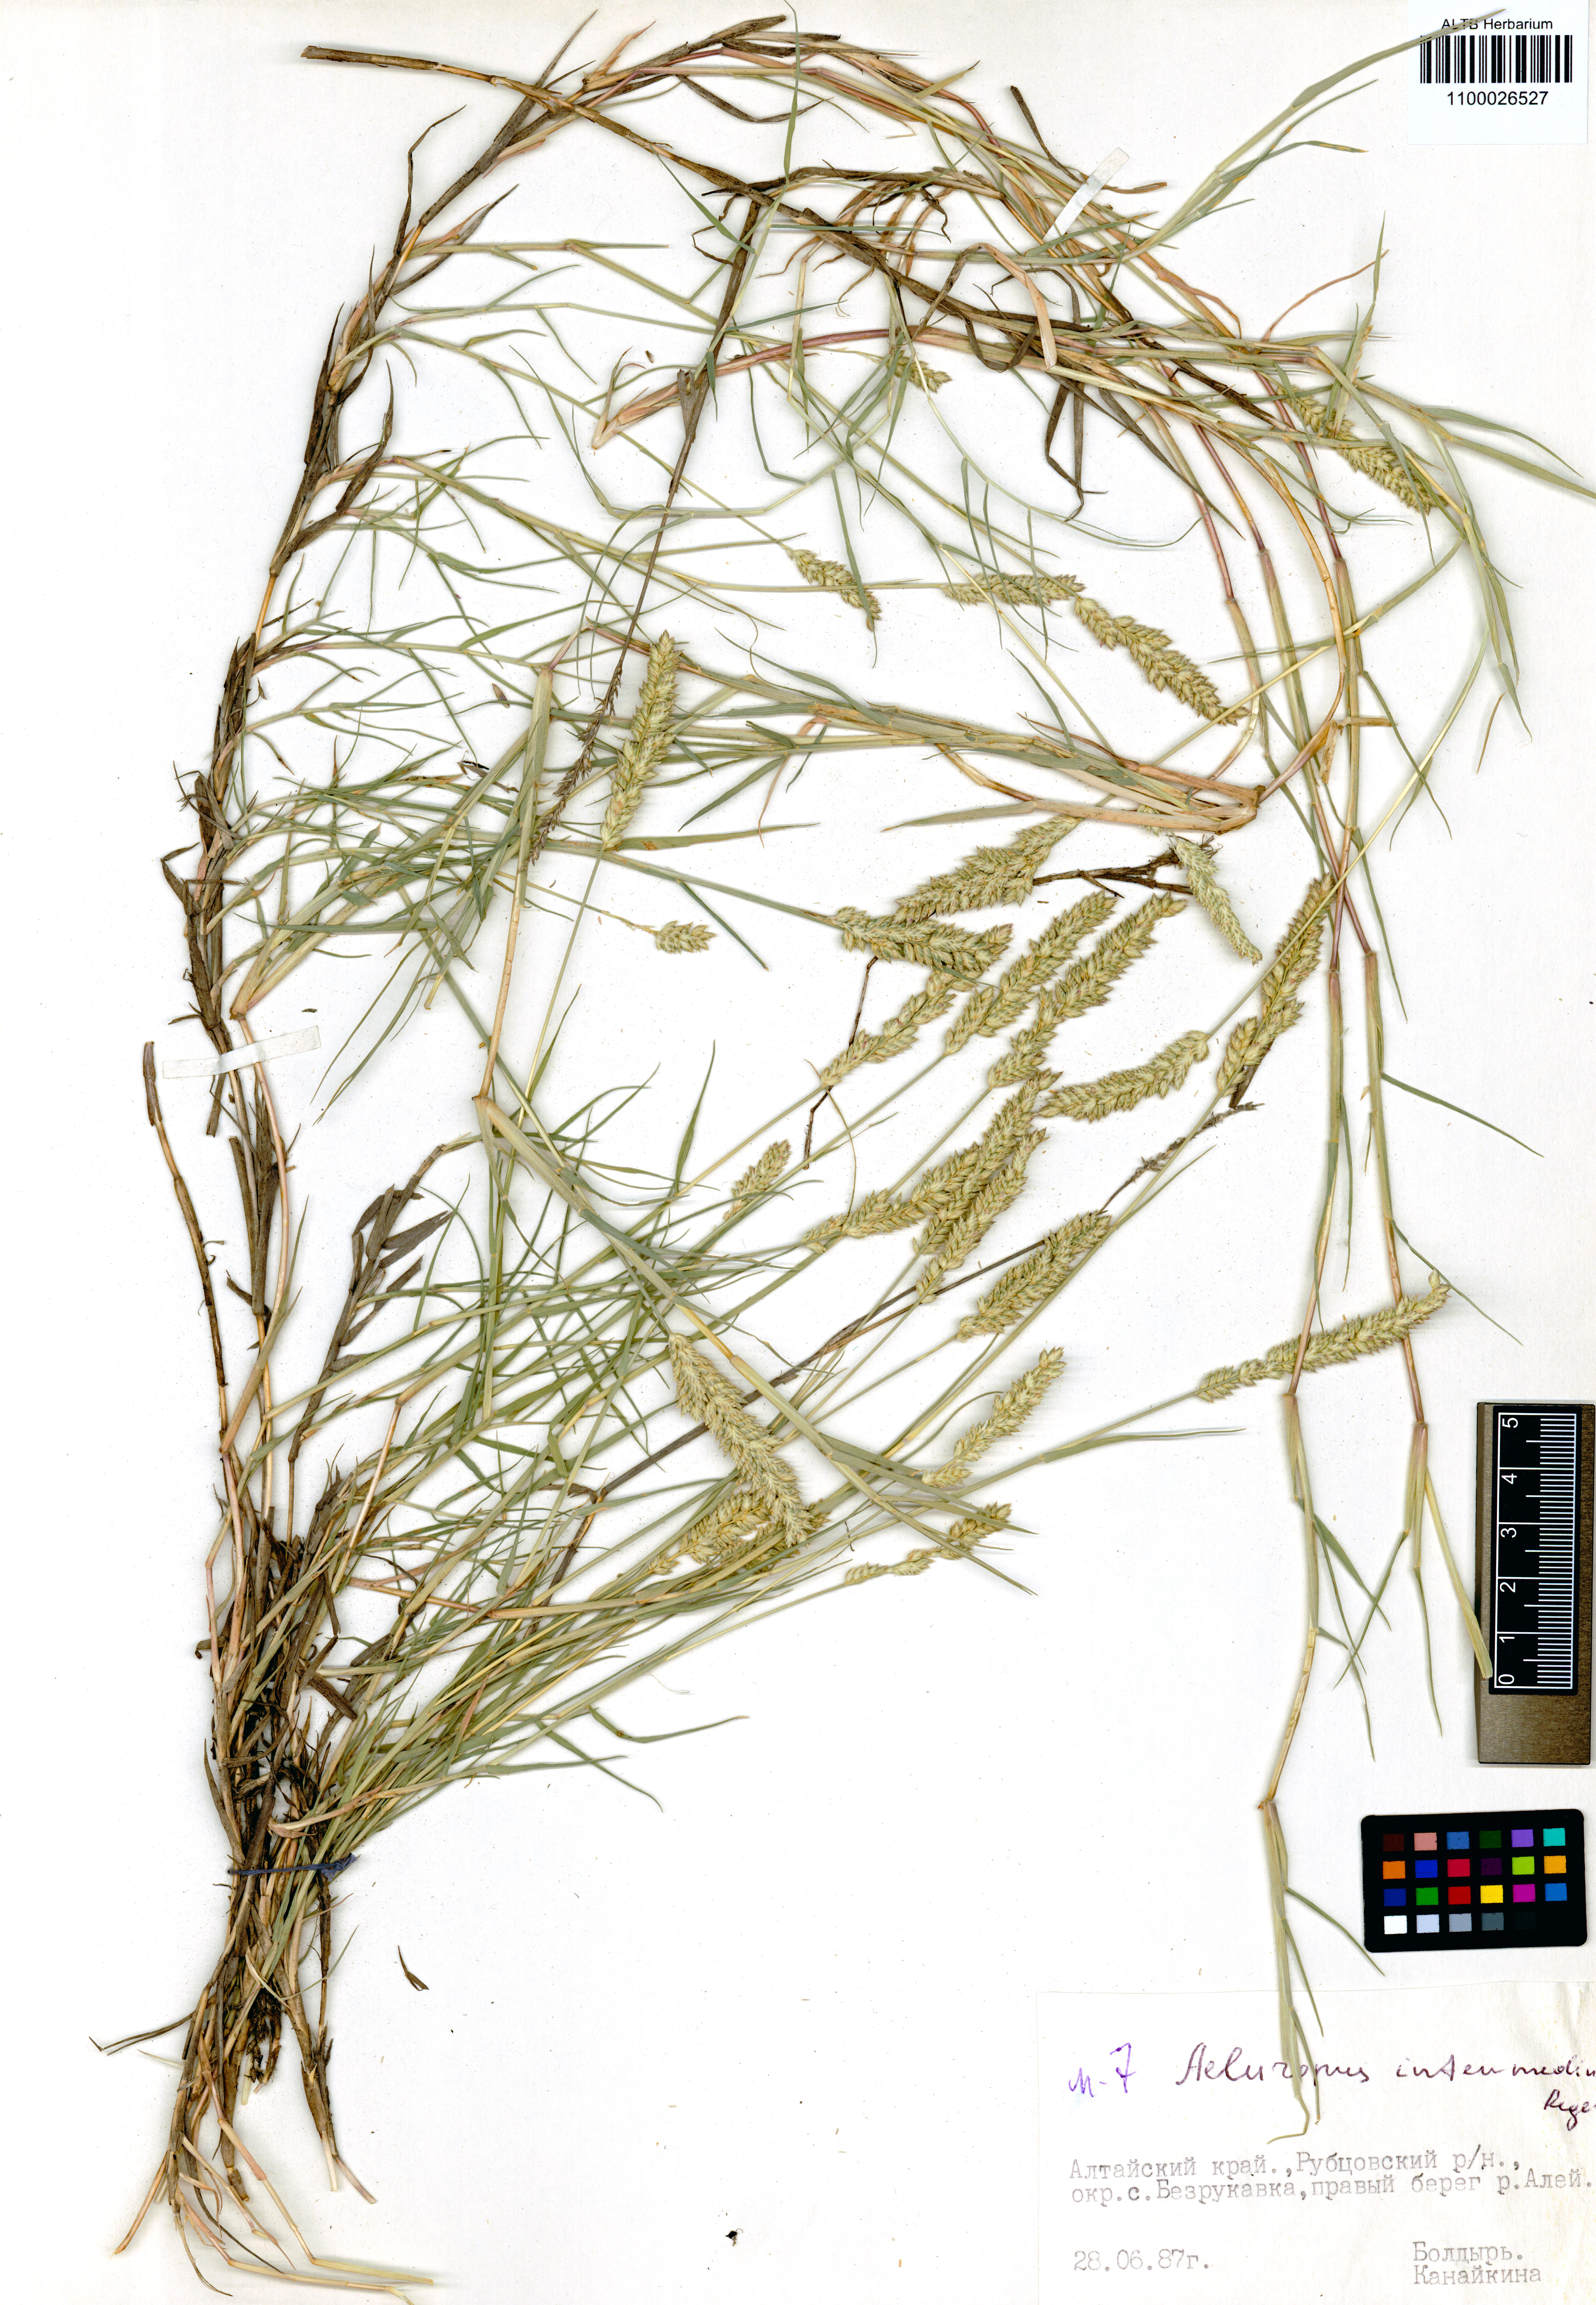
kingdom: Plantae
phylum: Tracheophyta
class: Liliopsida
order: Poales
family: Poaceae
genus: Aeluropus
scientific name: Aeluropus littoralis
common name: Indian walnut
